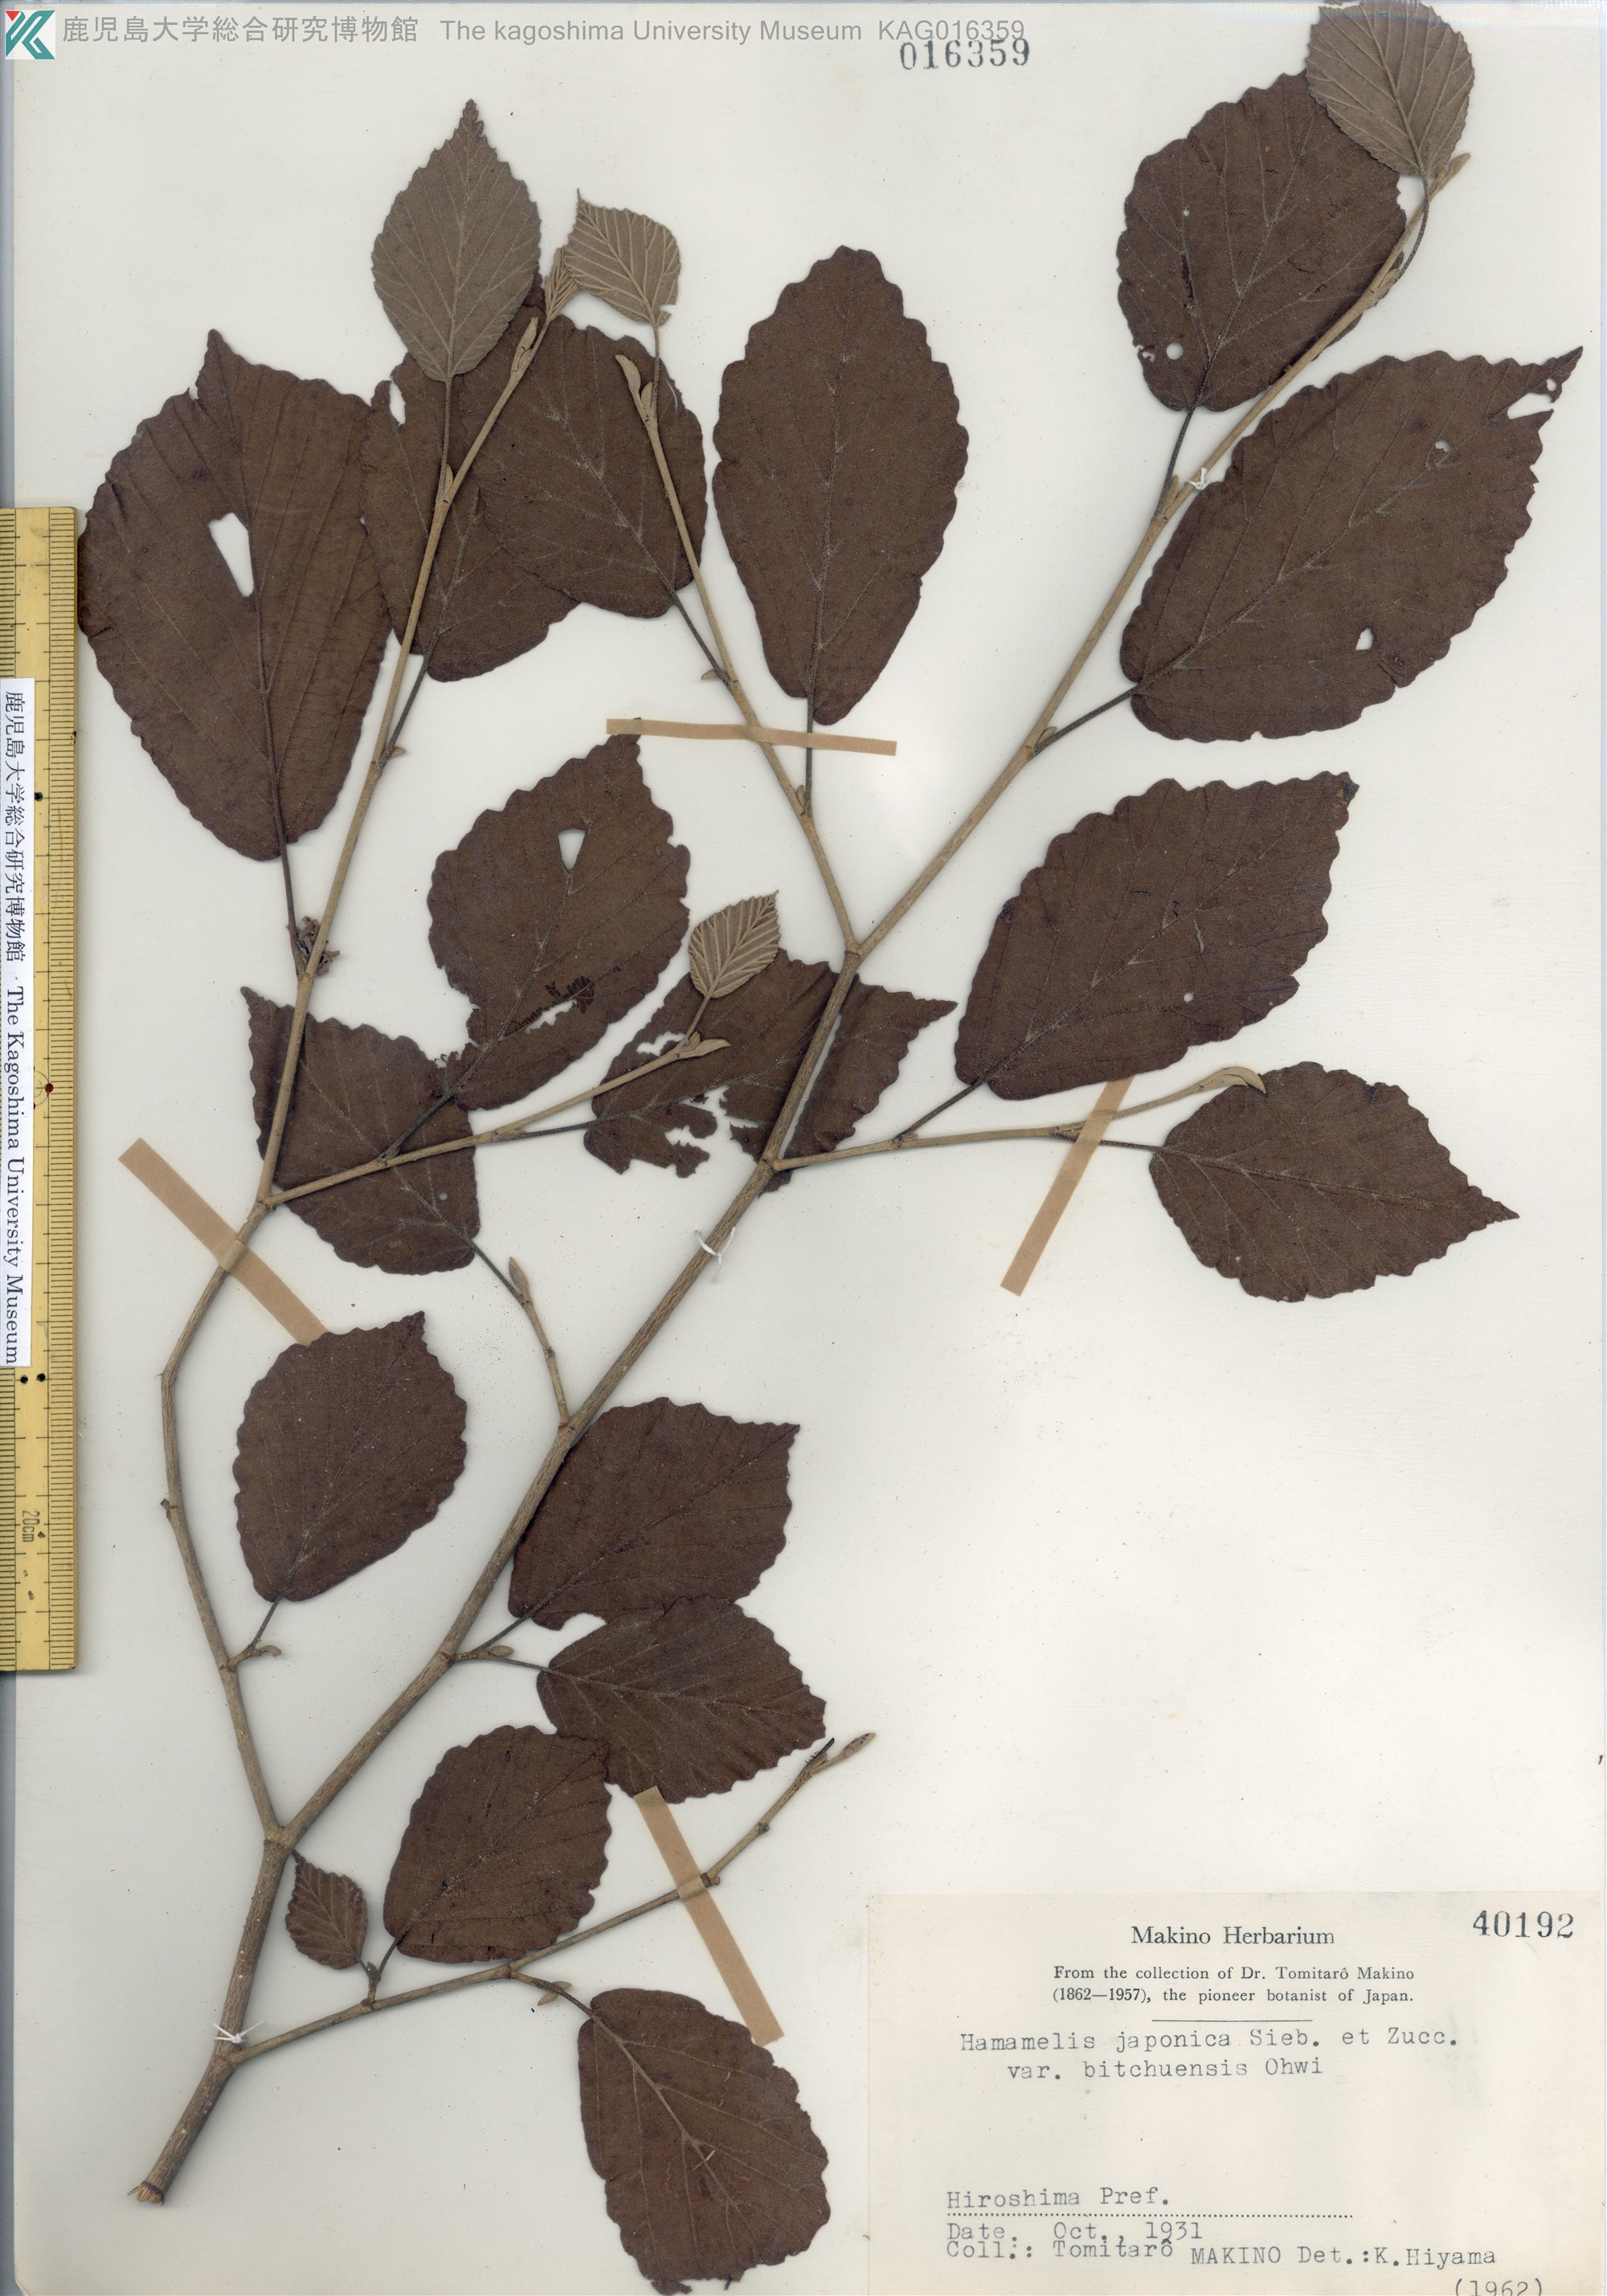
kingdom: Plantae
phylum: Tracheophyta
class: Magnoliopsida
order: Saxifragales
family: Hamamelidaceae
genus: Hamamelis
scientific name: Hamamelis japonica
